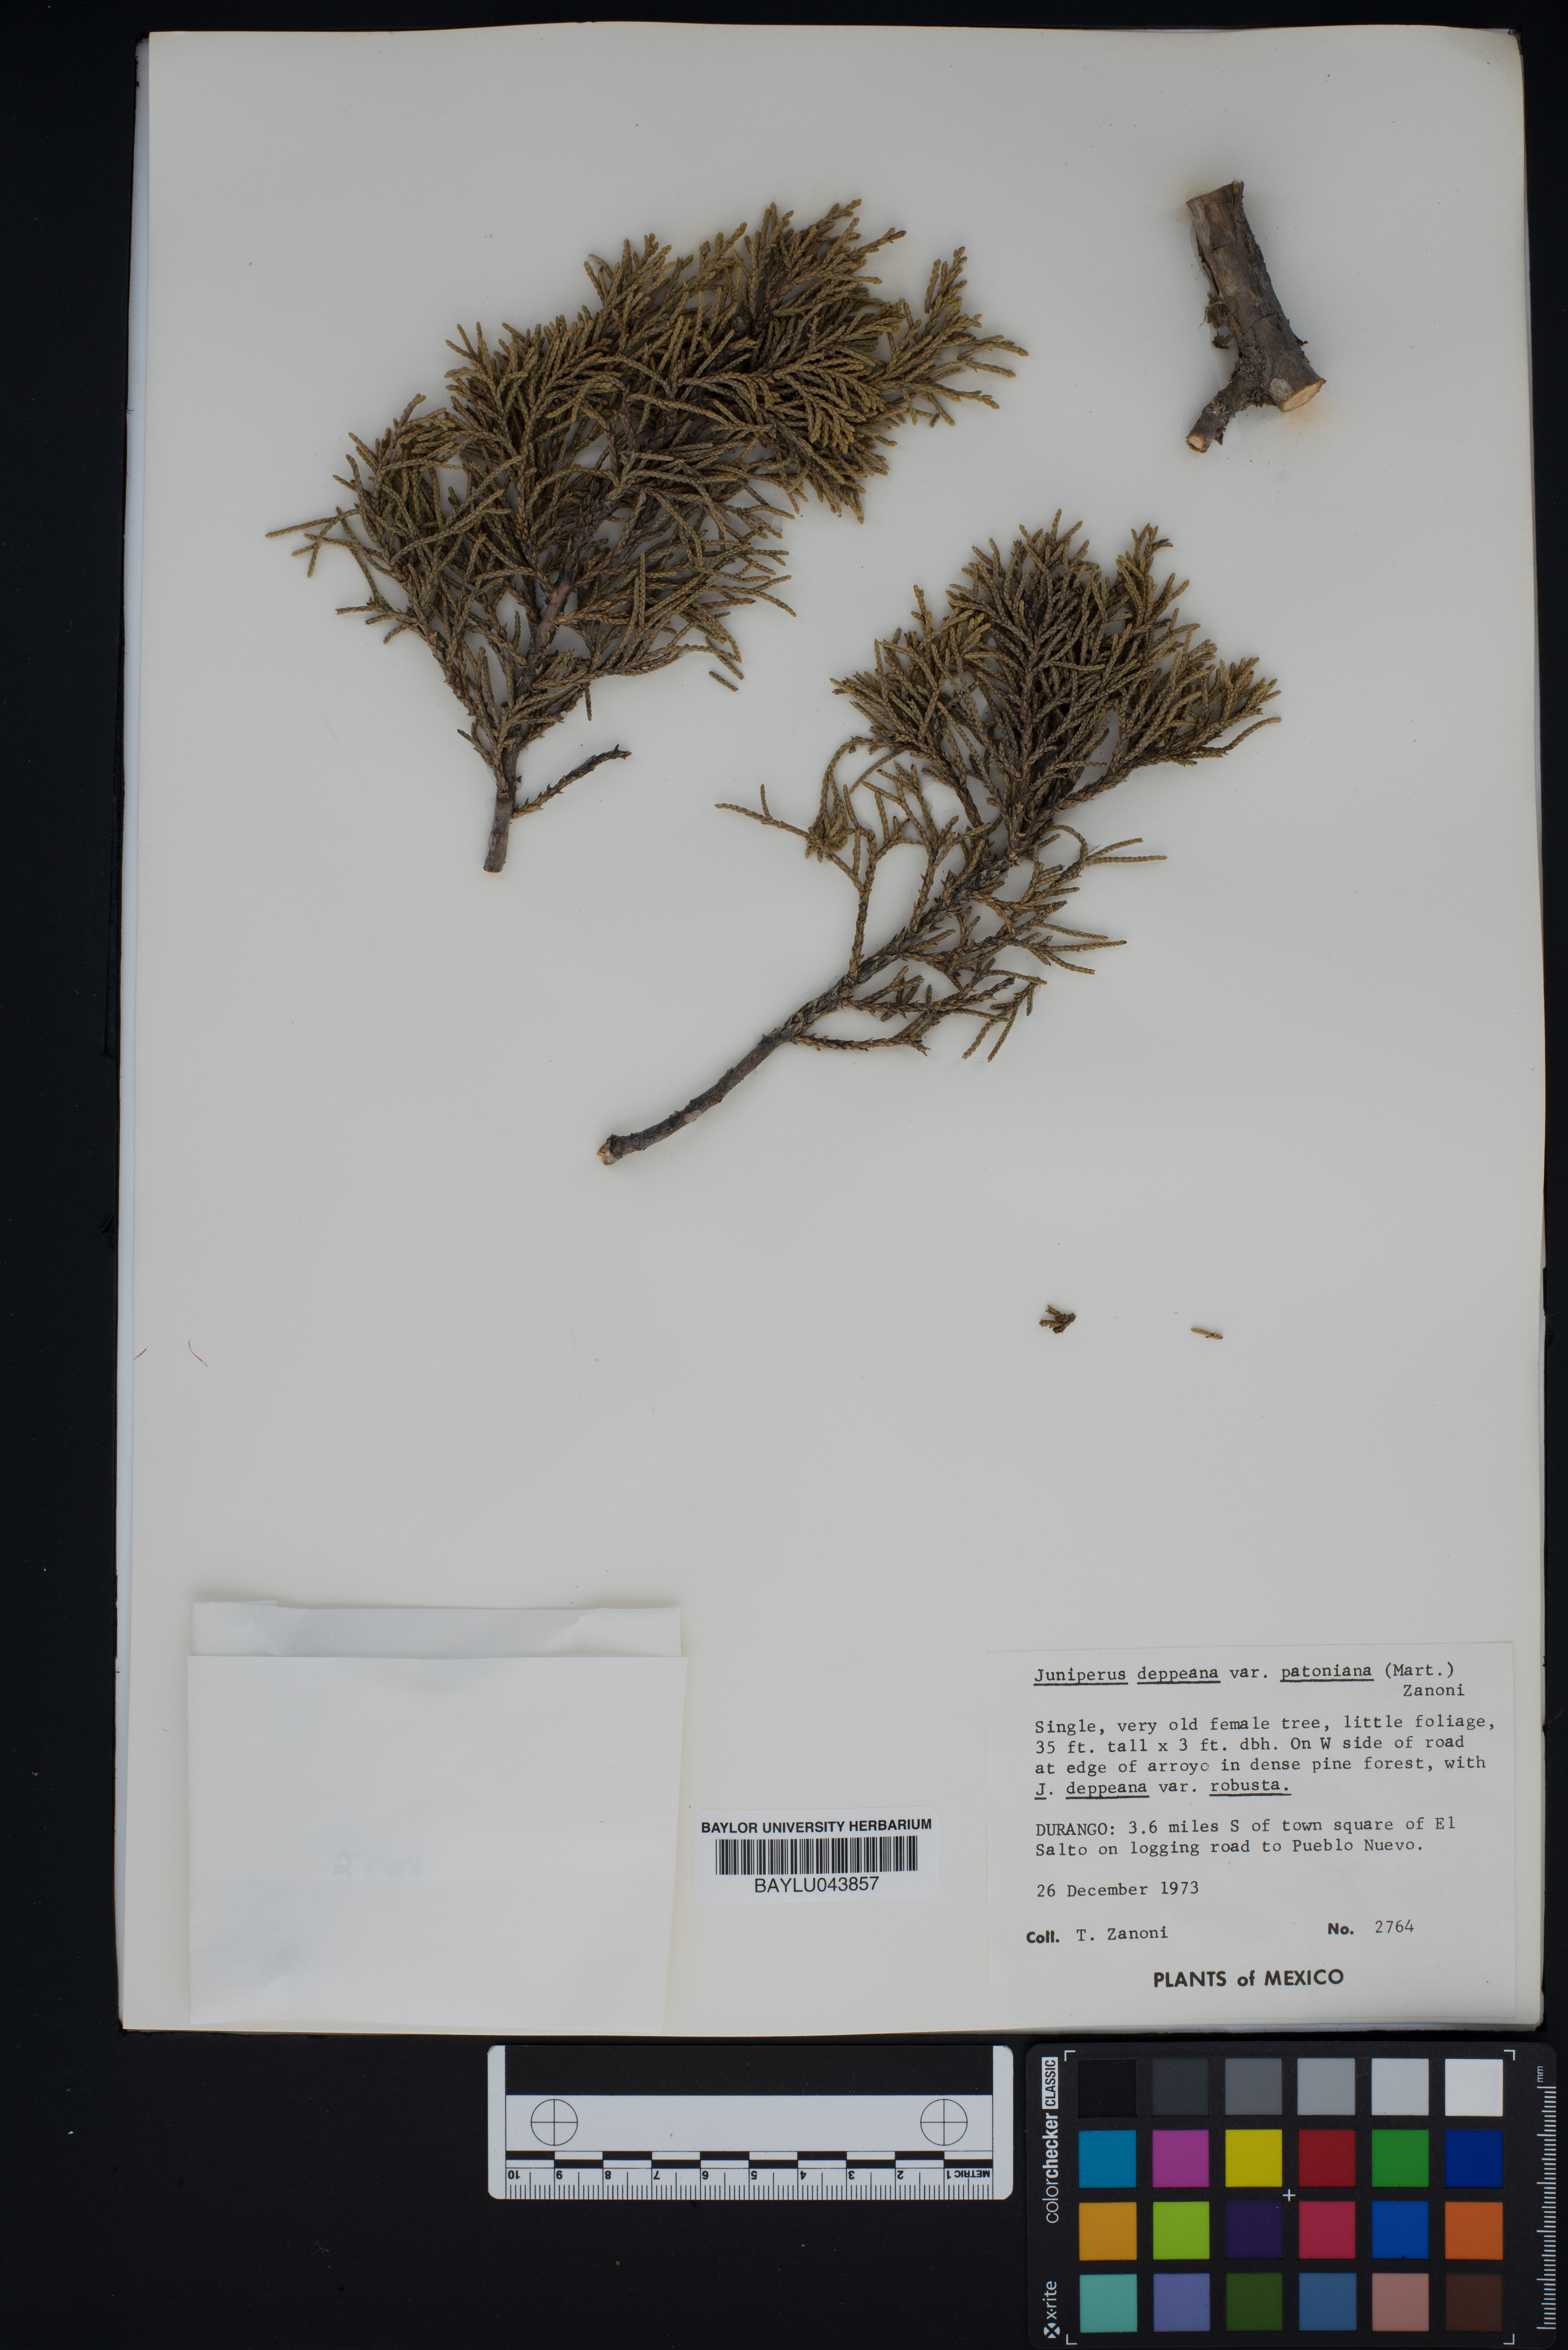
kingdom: Plantae
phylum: Tracheophyta
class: Pinopsida
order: Pinales
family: Cupressaceae
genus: Juniperus
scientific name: Juniperus deppeana
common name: Alligator juniper
